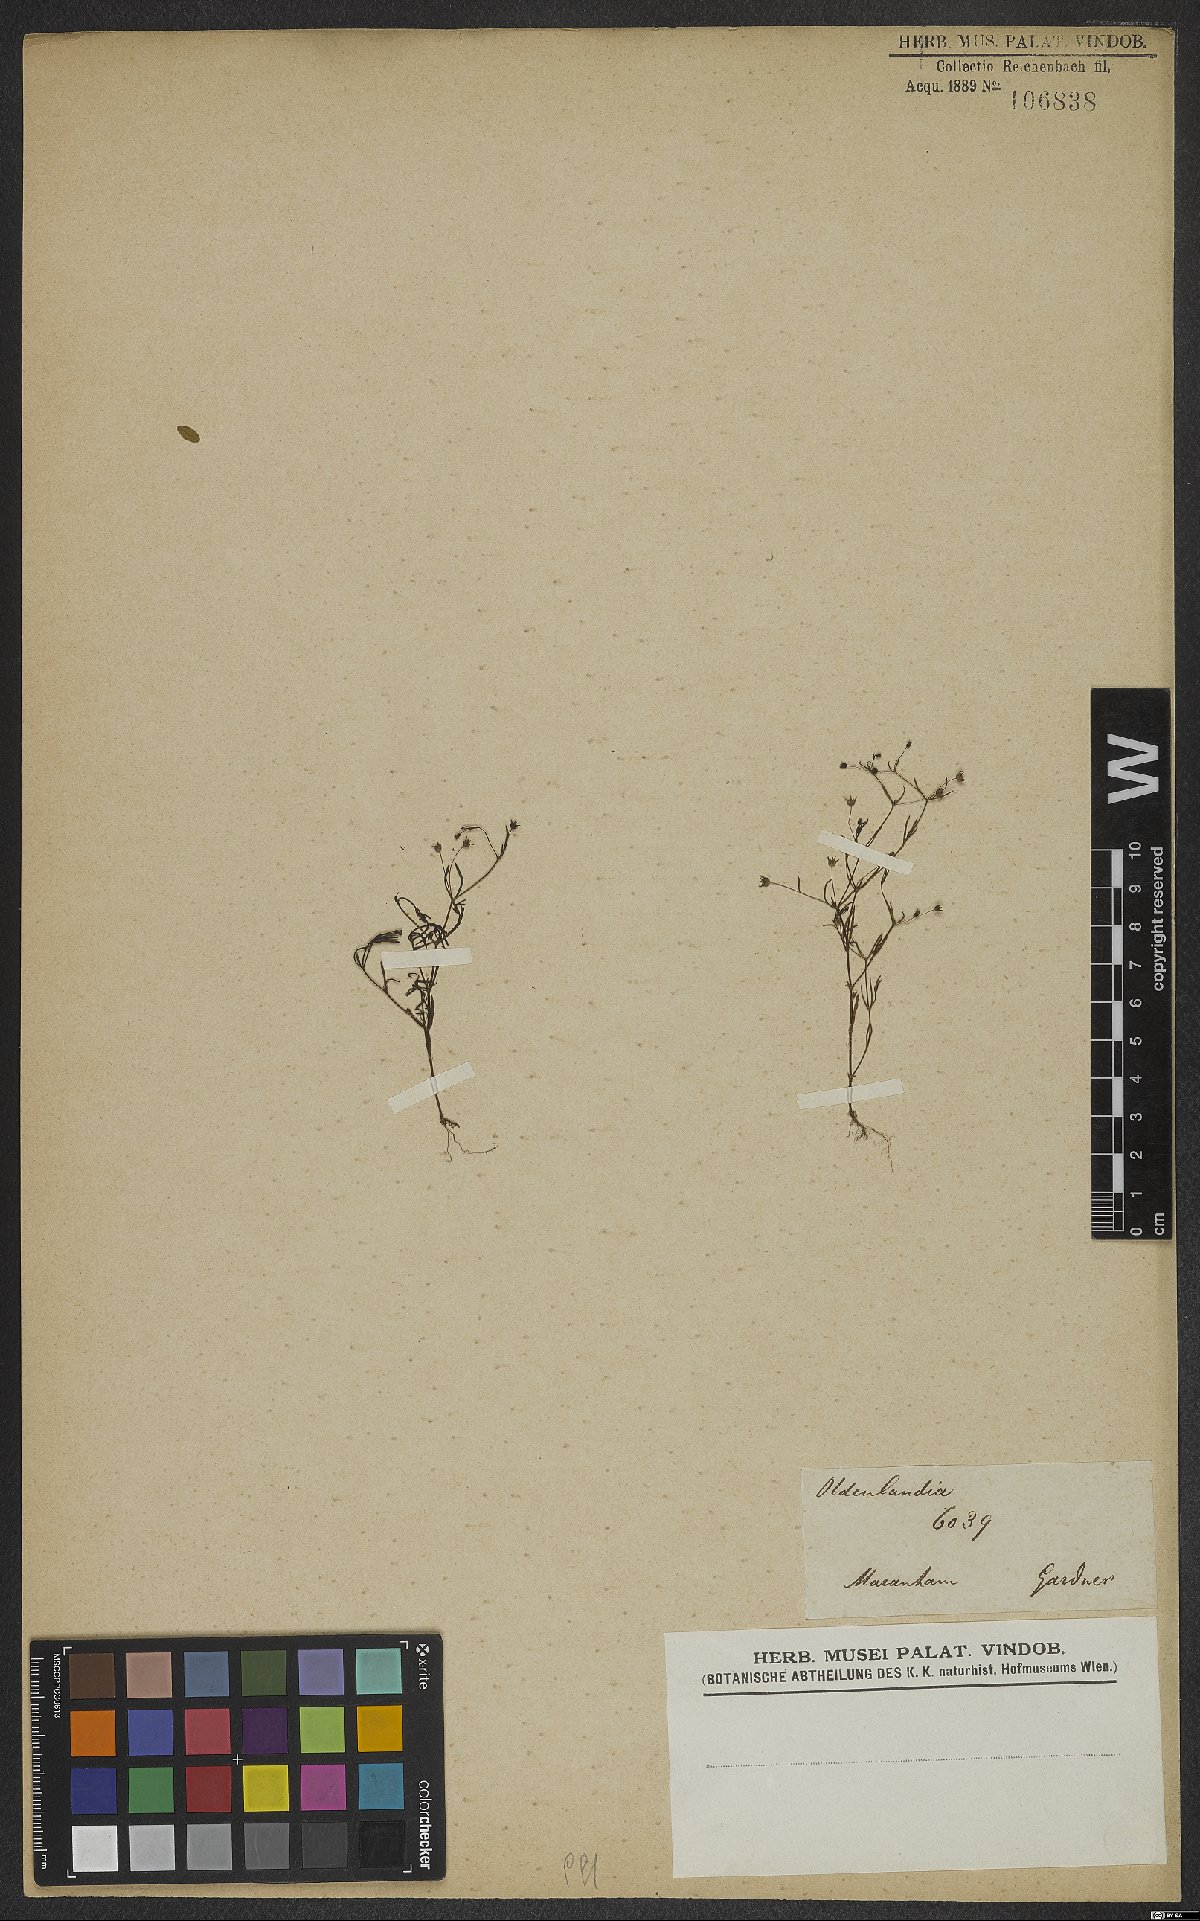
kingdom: Plantae
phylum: Tracheophyta
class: Magnoliopsida
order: Gentianales
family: Rubiaceae
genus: Oldenlandia
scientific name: Oldenlandia
